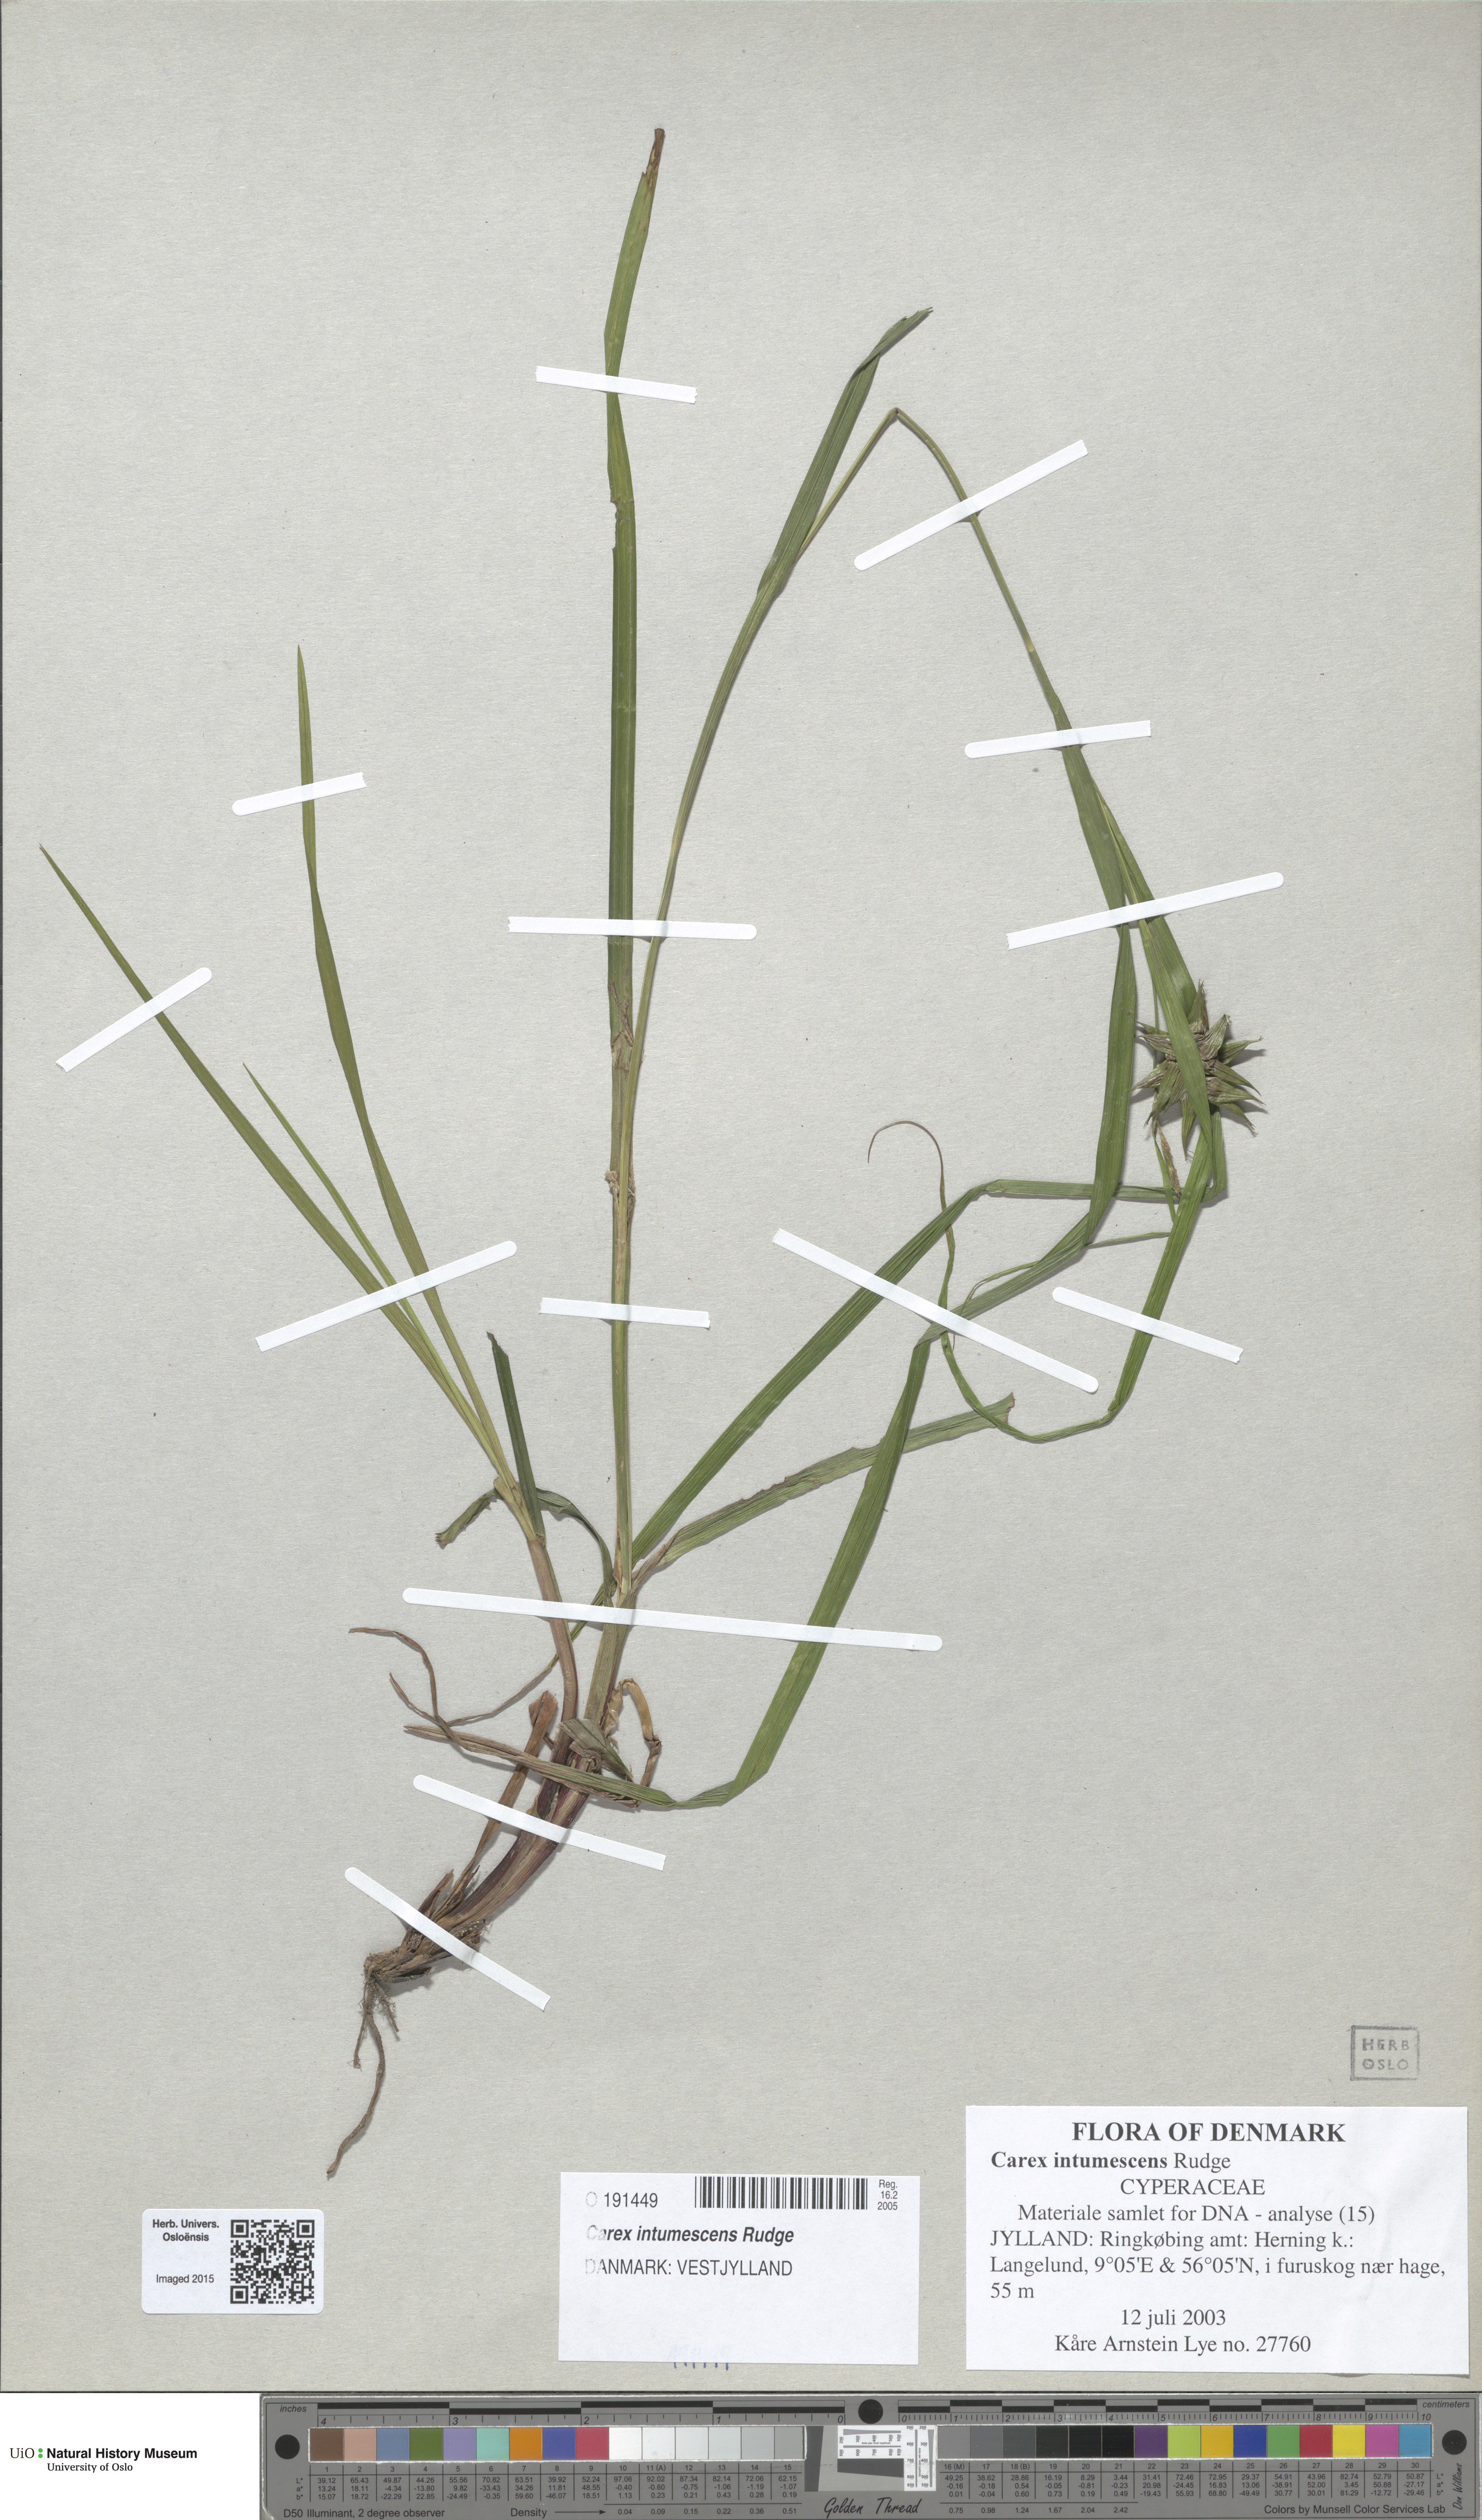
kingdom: Plantae
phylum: Tracheophyta
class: Liliopsida
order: Poales
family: Cyperaceae
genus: Carex
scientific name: Carex intumescens
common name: Greater bladder sedge
